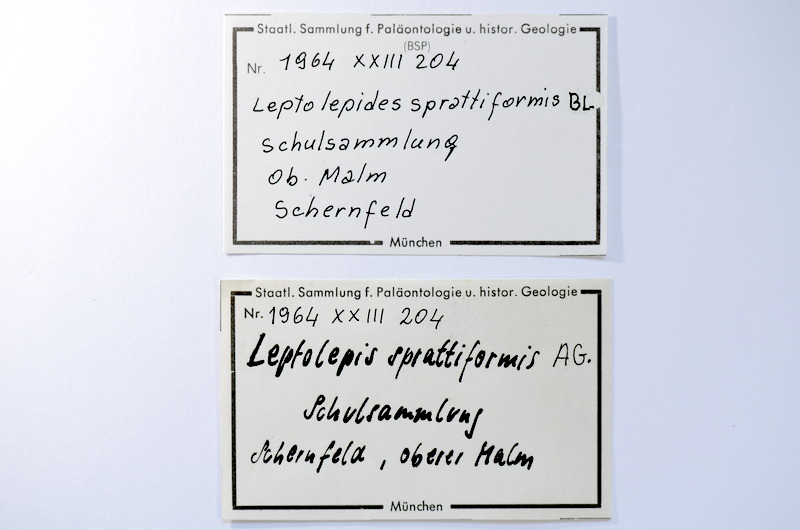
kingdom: Animalia
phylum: Chordata
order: Salmoniformes
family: Orthogonikleithridae
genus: Leptolepides
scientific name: Leptolepides sprattiformis
